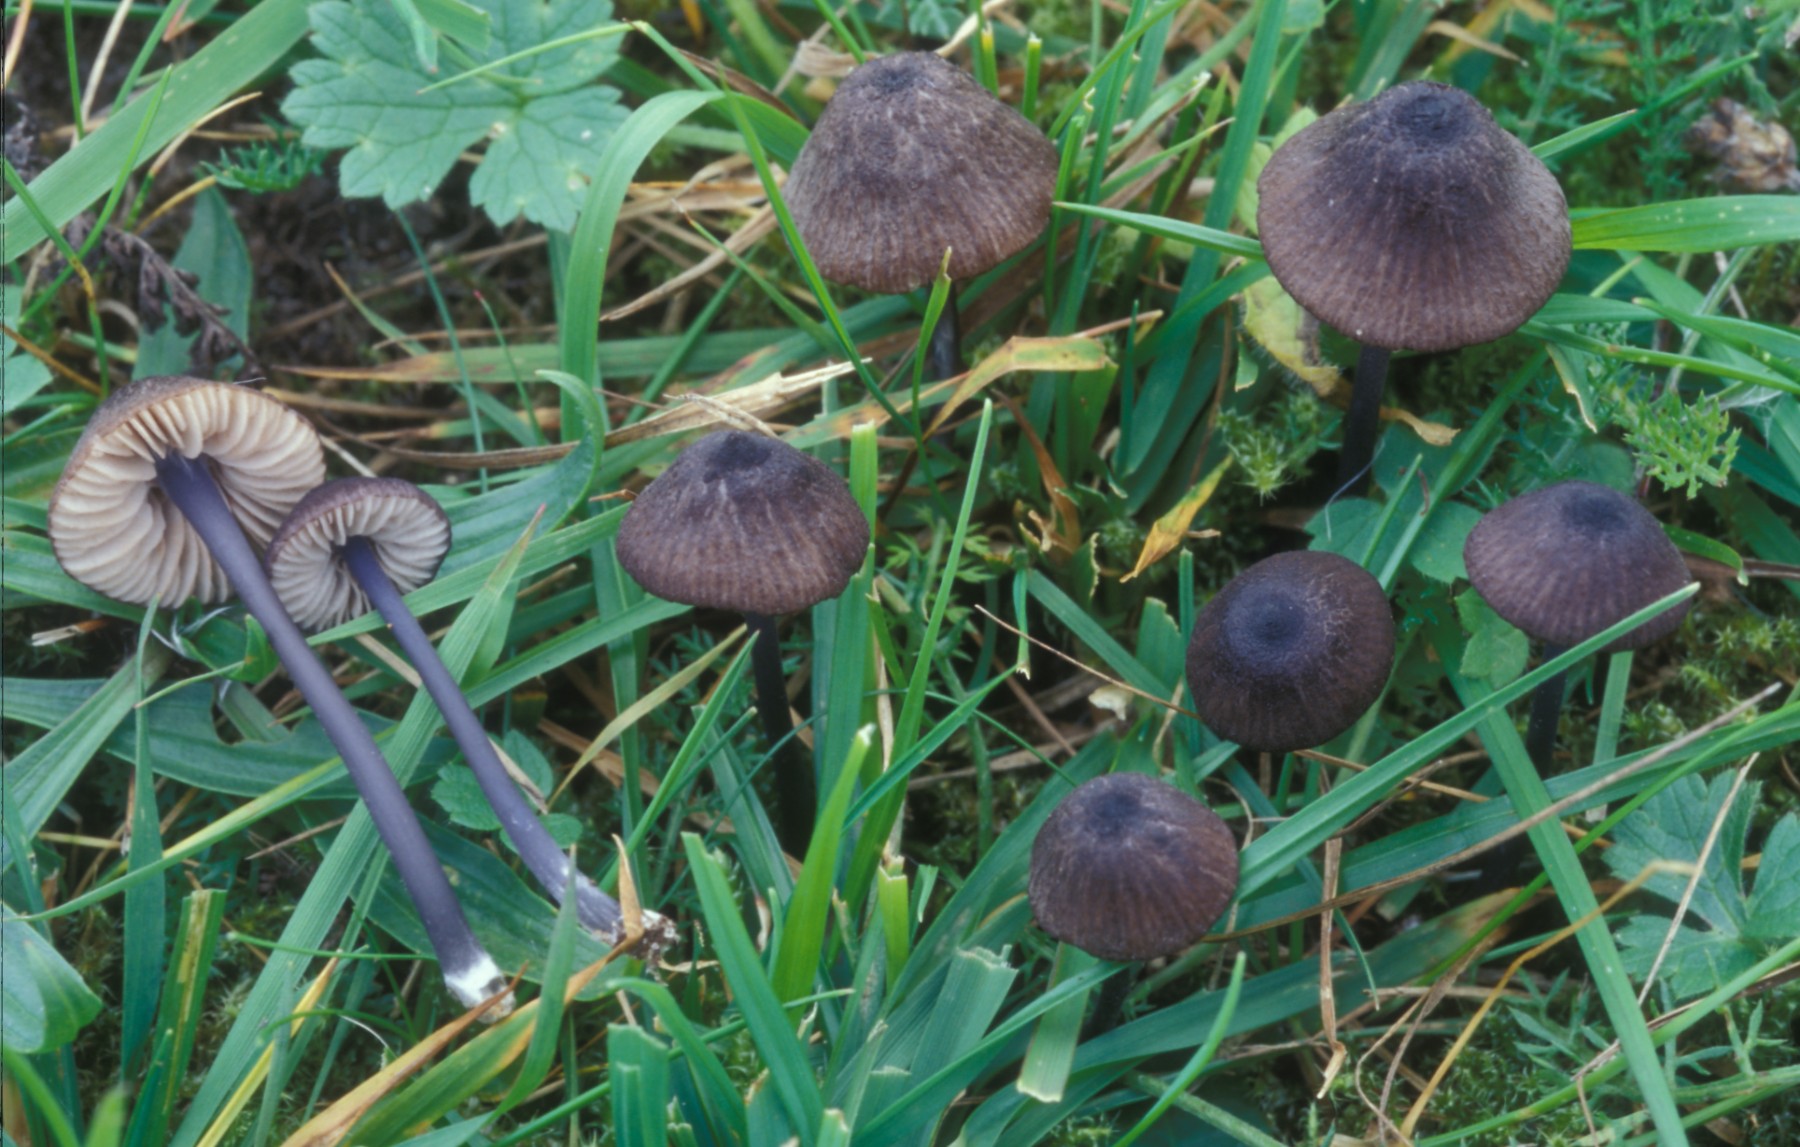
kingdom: Fungi
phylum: Basidiomycota
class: Agaricomycetes
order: Agaricales
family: Entolomataceae
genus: Entoloma
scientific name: Entoloma poliopus
